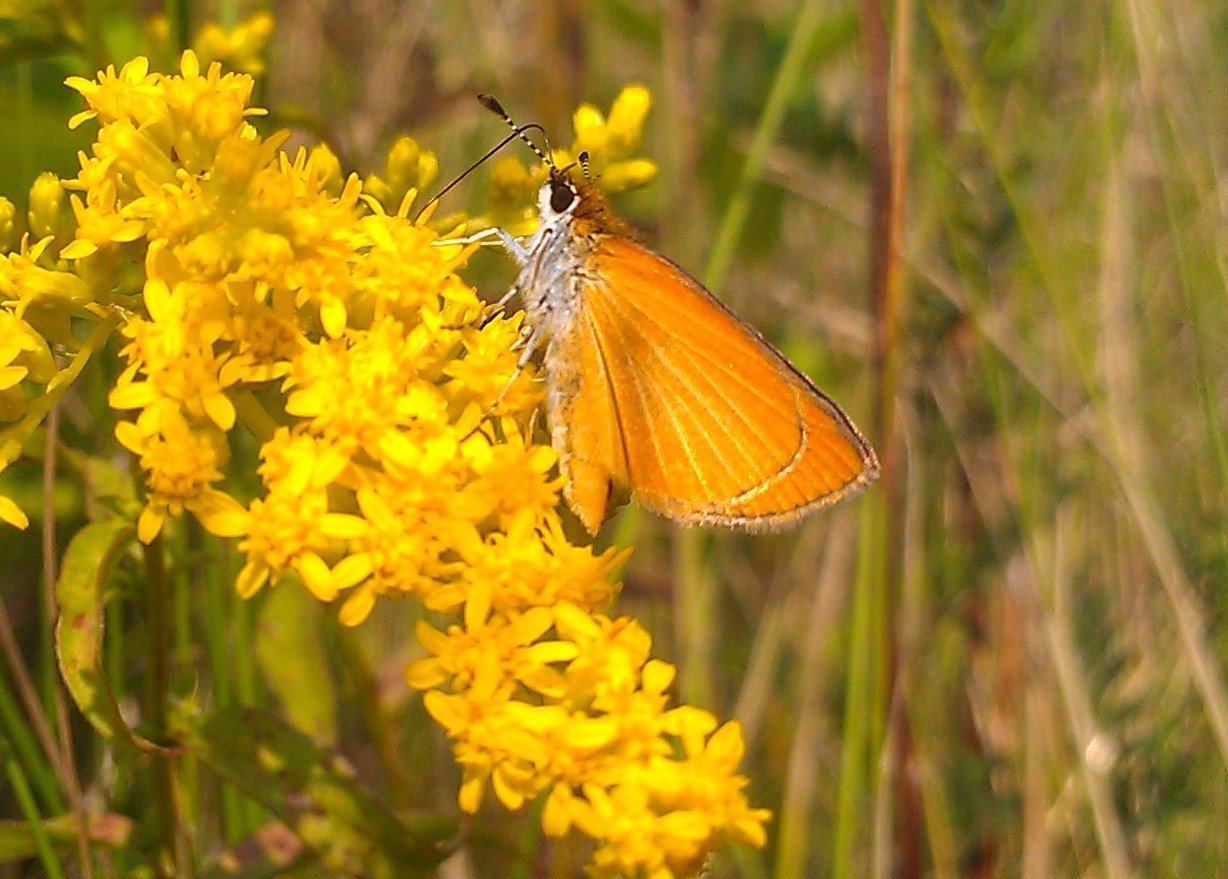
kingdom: Animalia
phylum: Arthropoda
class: Insecta
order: Lepidoptera
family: Hesperiidae
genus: Ancyloxypha
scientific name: Ancyloxypha numitor
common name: Least Skipper
